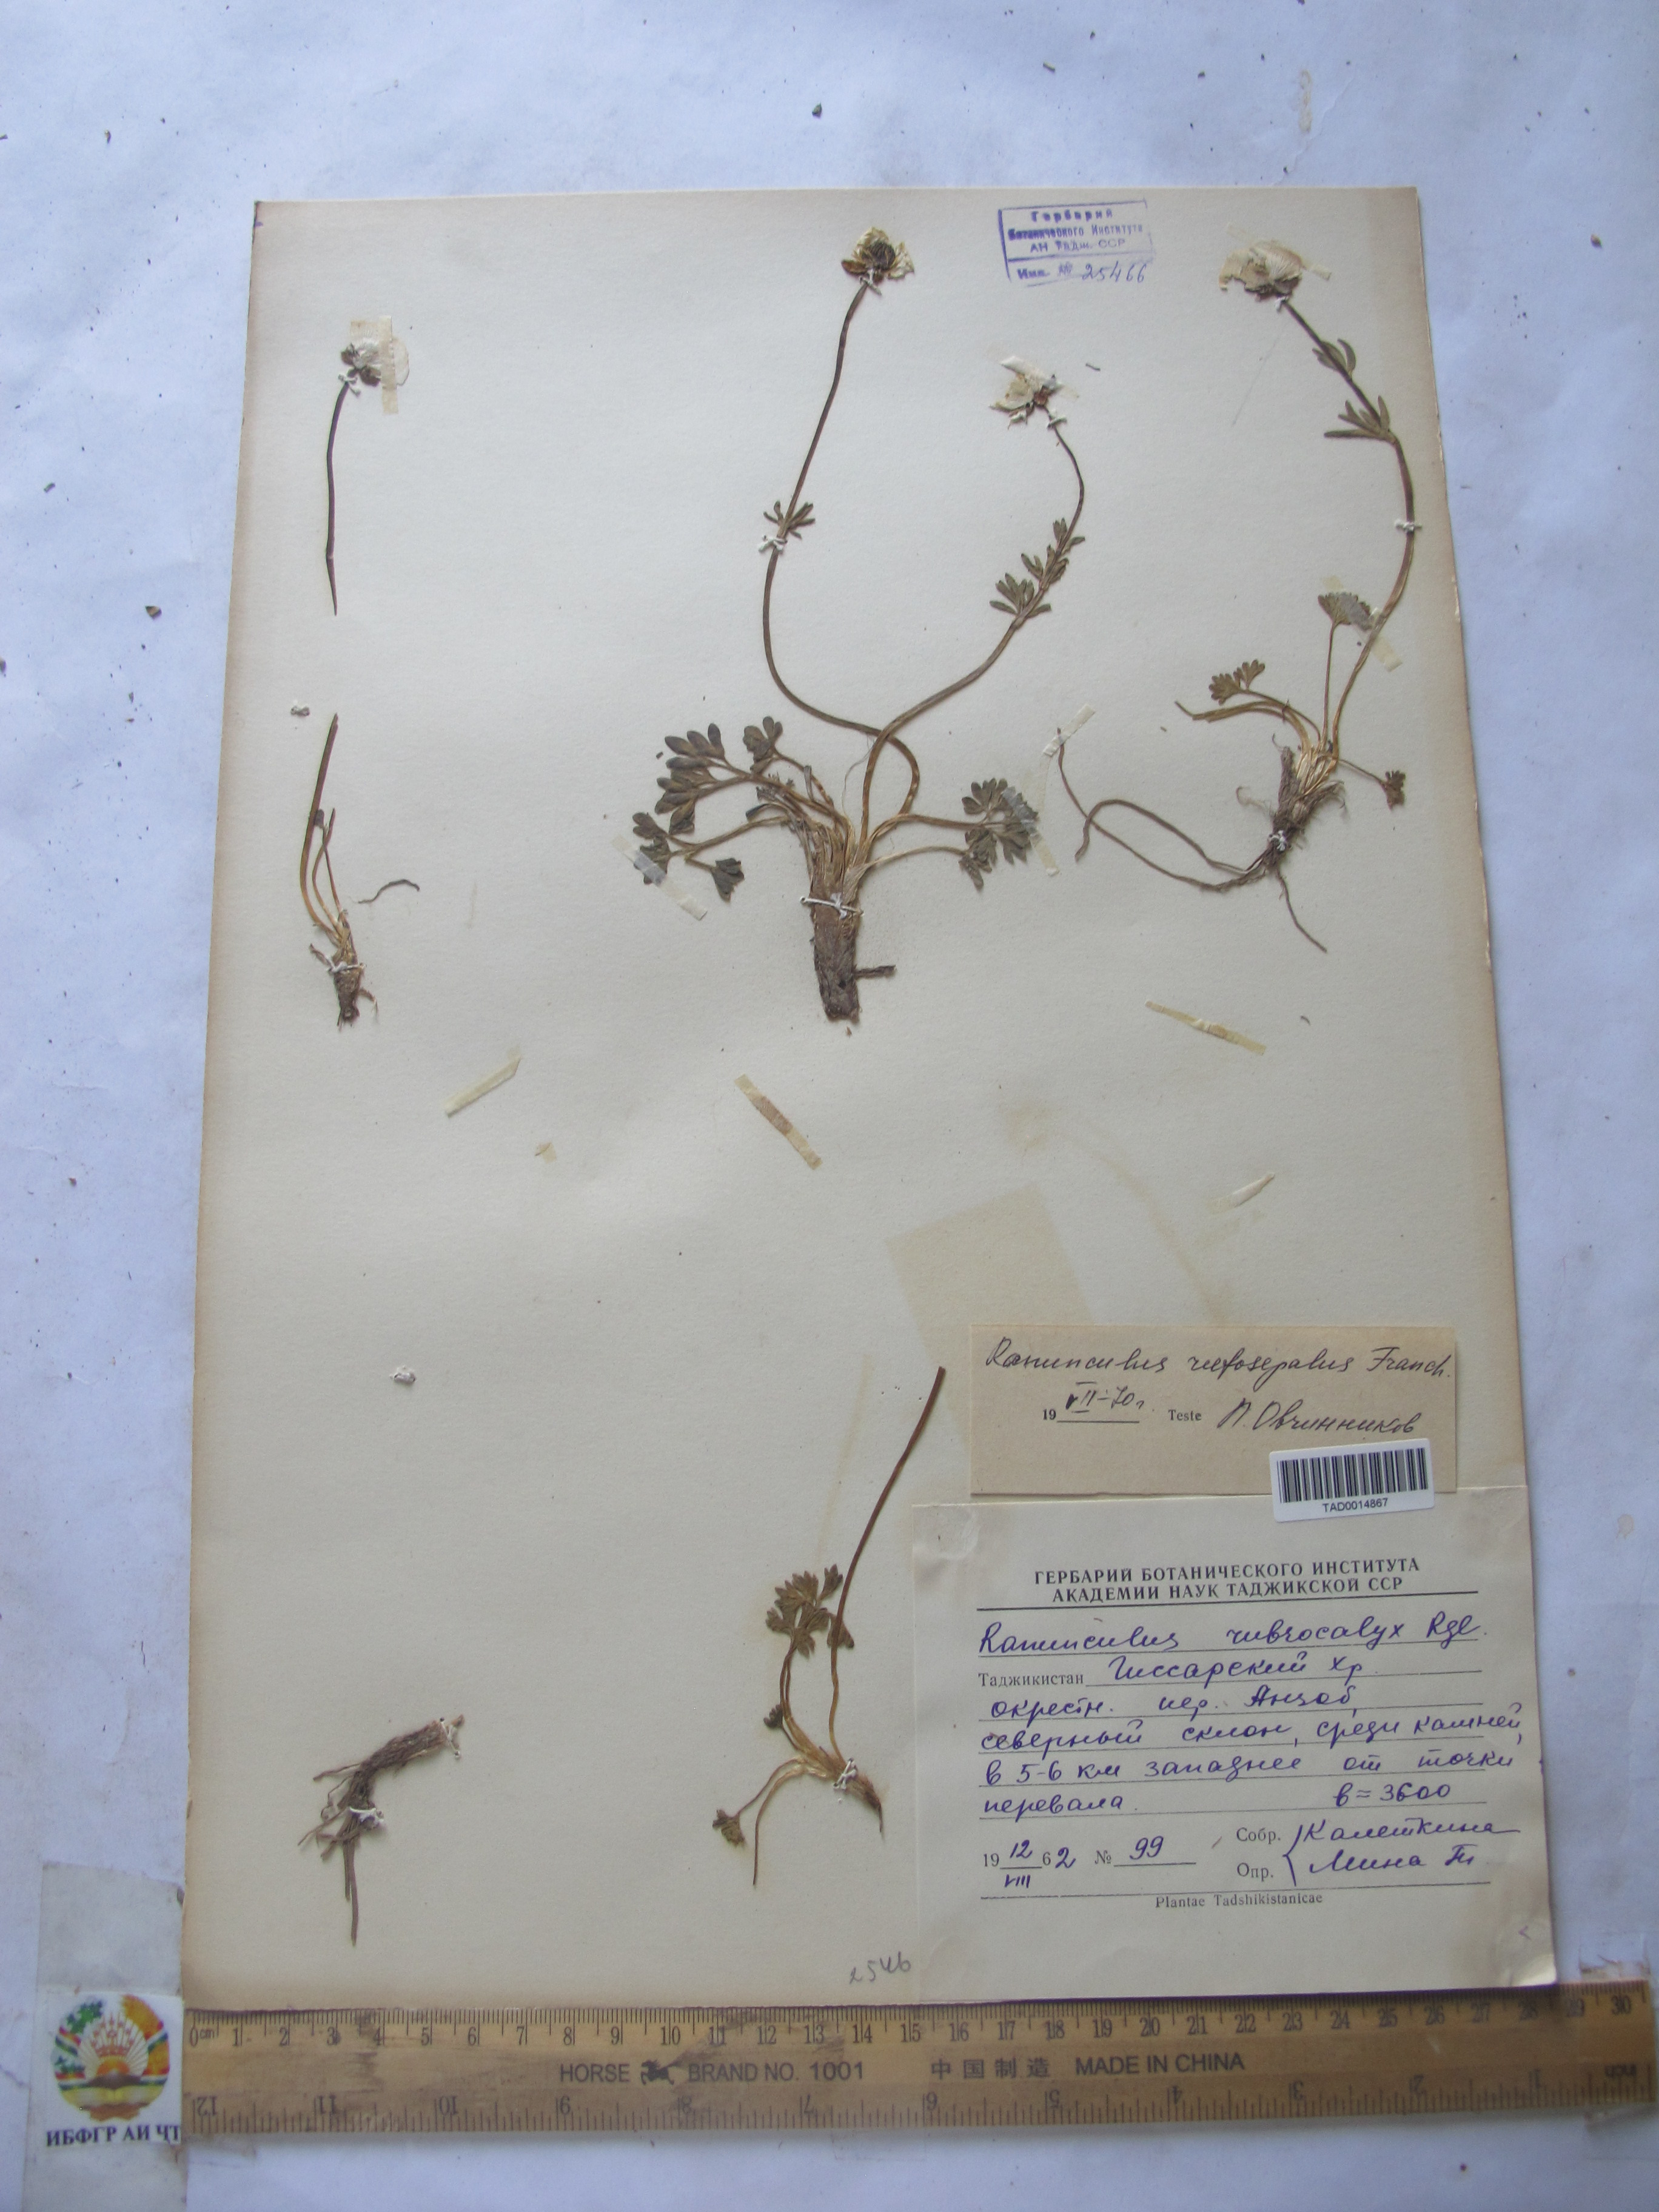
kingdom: Plantae
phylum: Tracheophyta
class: Magnoliopsida
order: Ranunculales
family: Ranunculaceae
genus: Ranunculus
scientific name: Ranunculus rufosepalus
